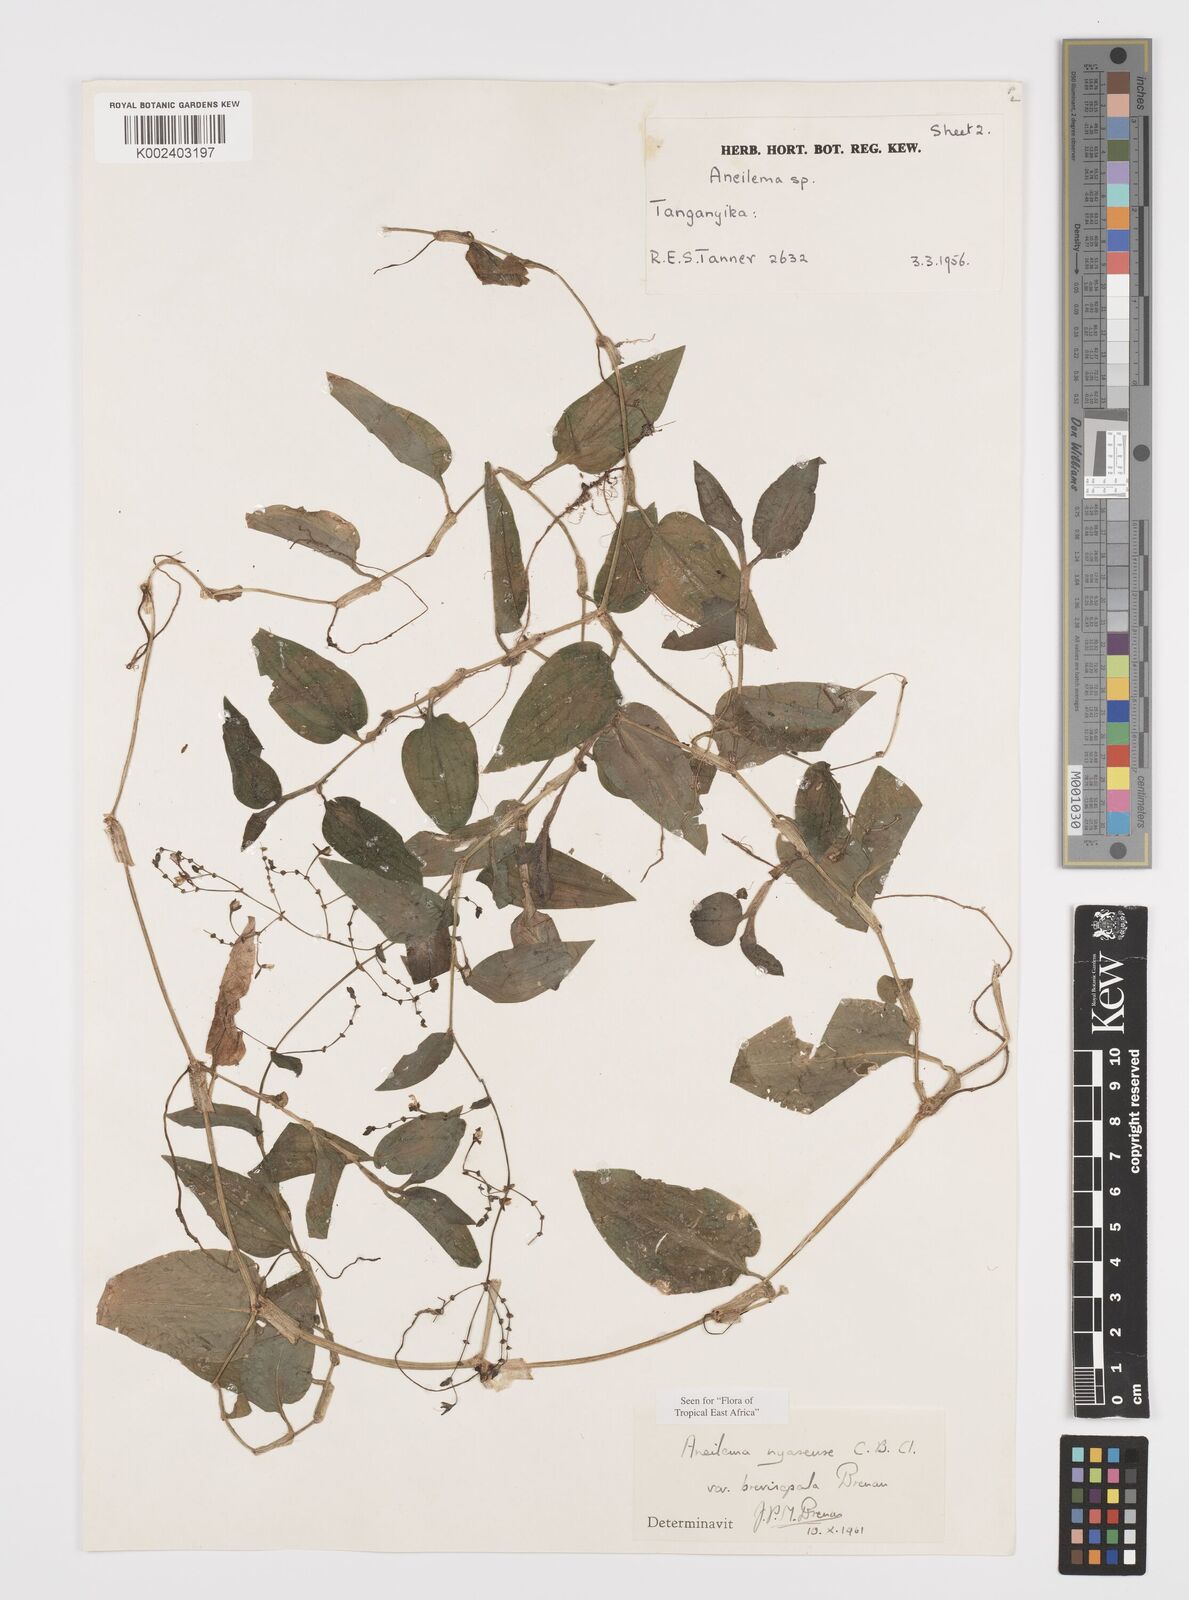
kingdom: Plantae
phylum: Tracheophyta
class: Liliopsida
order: Commelinales
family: Commelinaceae
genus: Aneilema
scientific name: Aneilema nyasense
